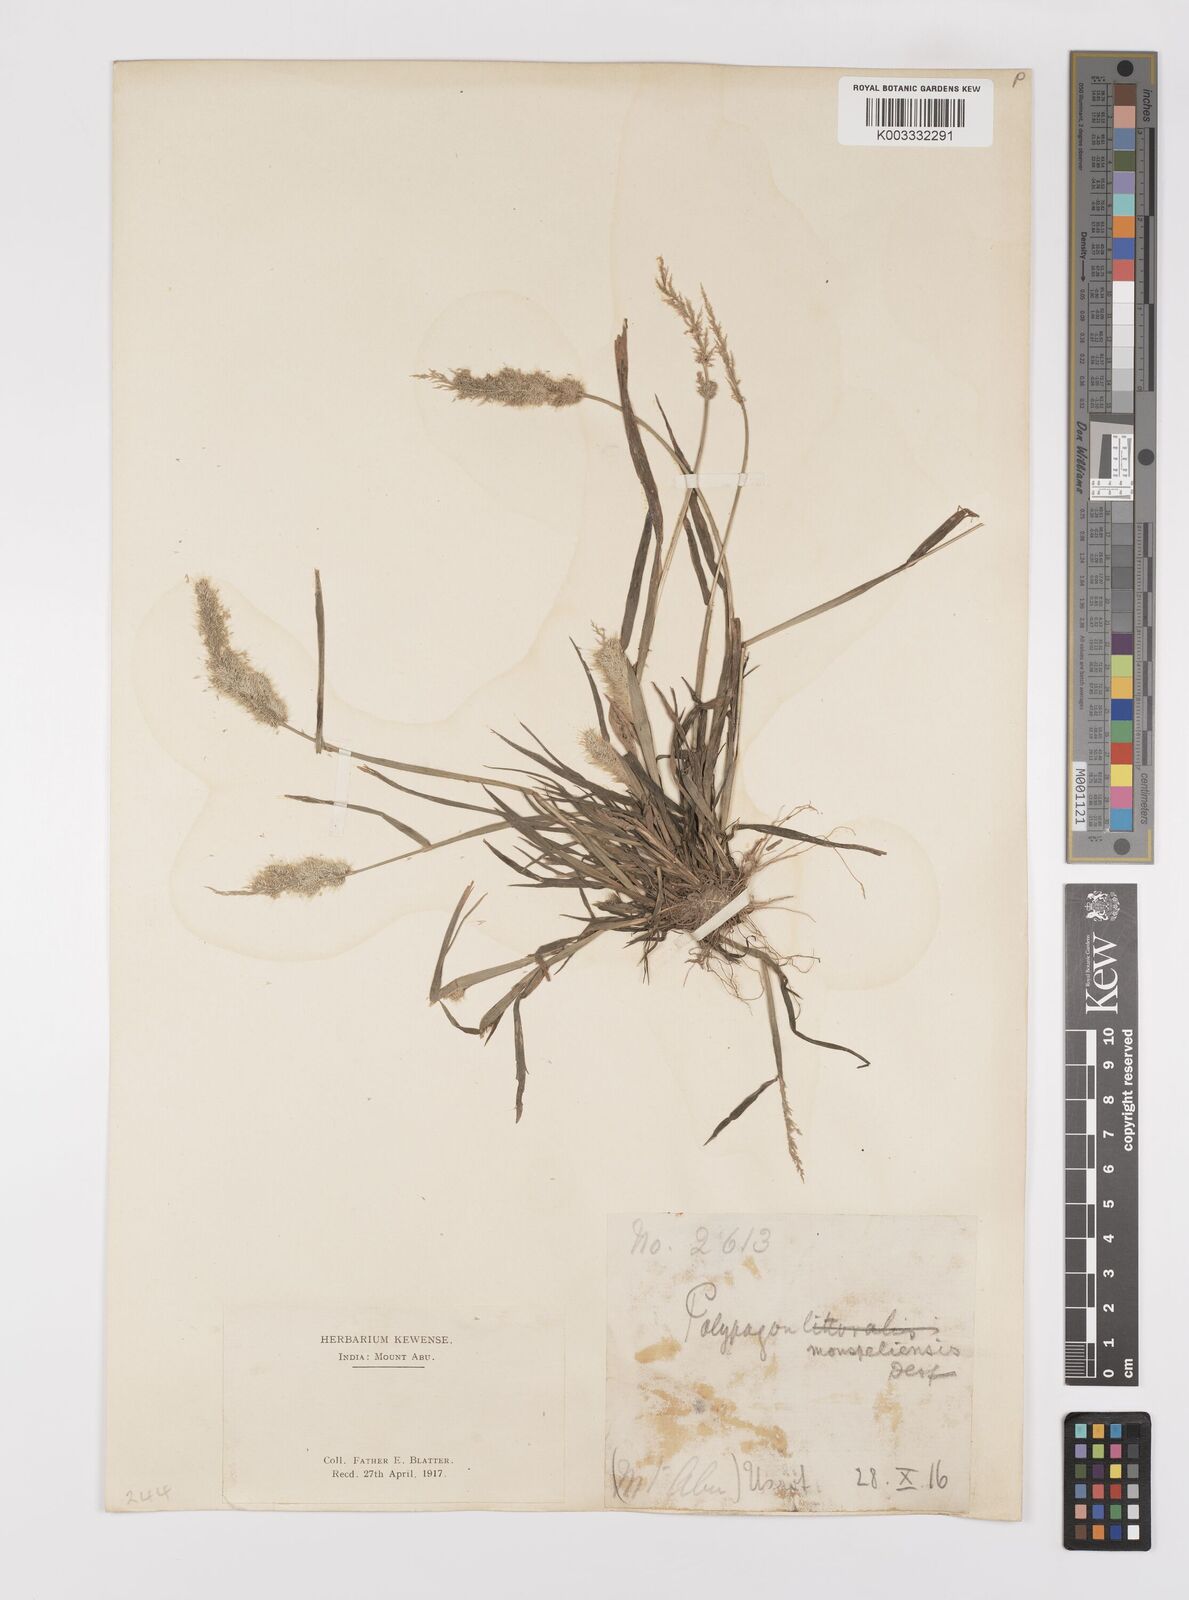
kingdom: Plantae
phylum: Tracheophyta
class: Liliopsida
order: Poales
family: Poaceae
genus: Polypogon
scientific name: Polypogon monspeliensis
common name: Annual rabbitsfoot grass
